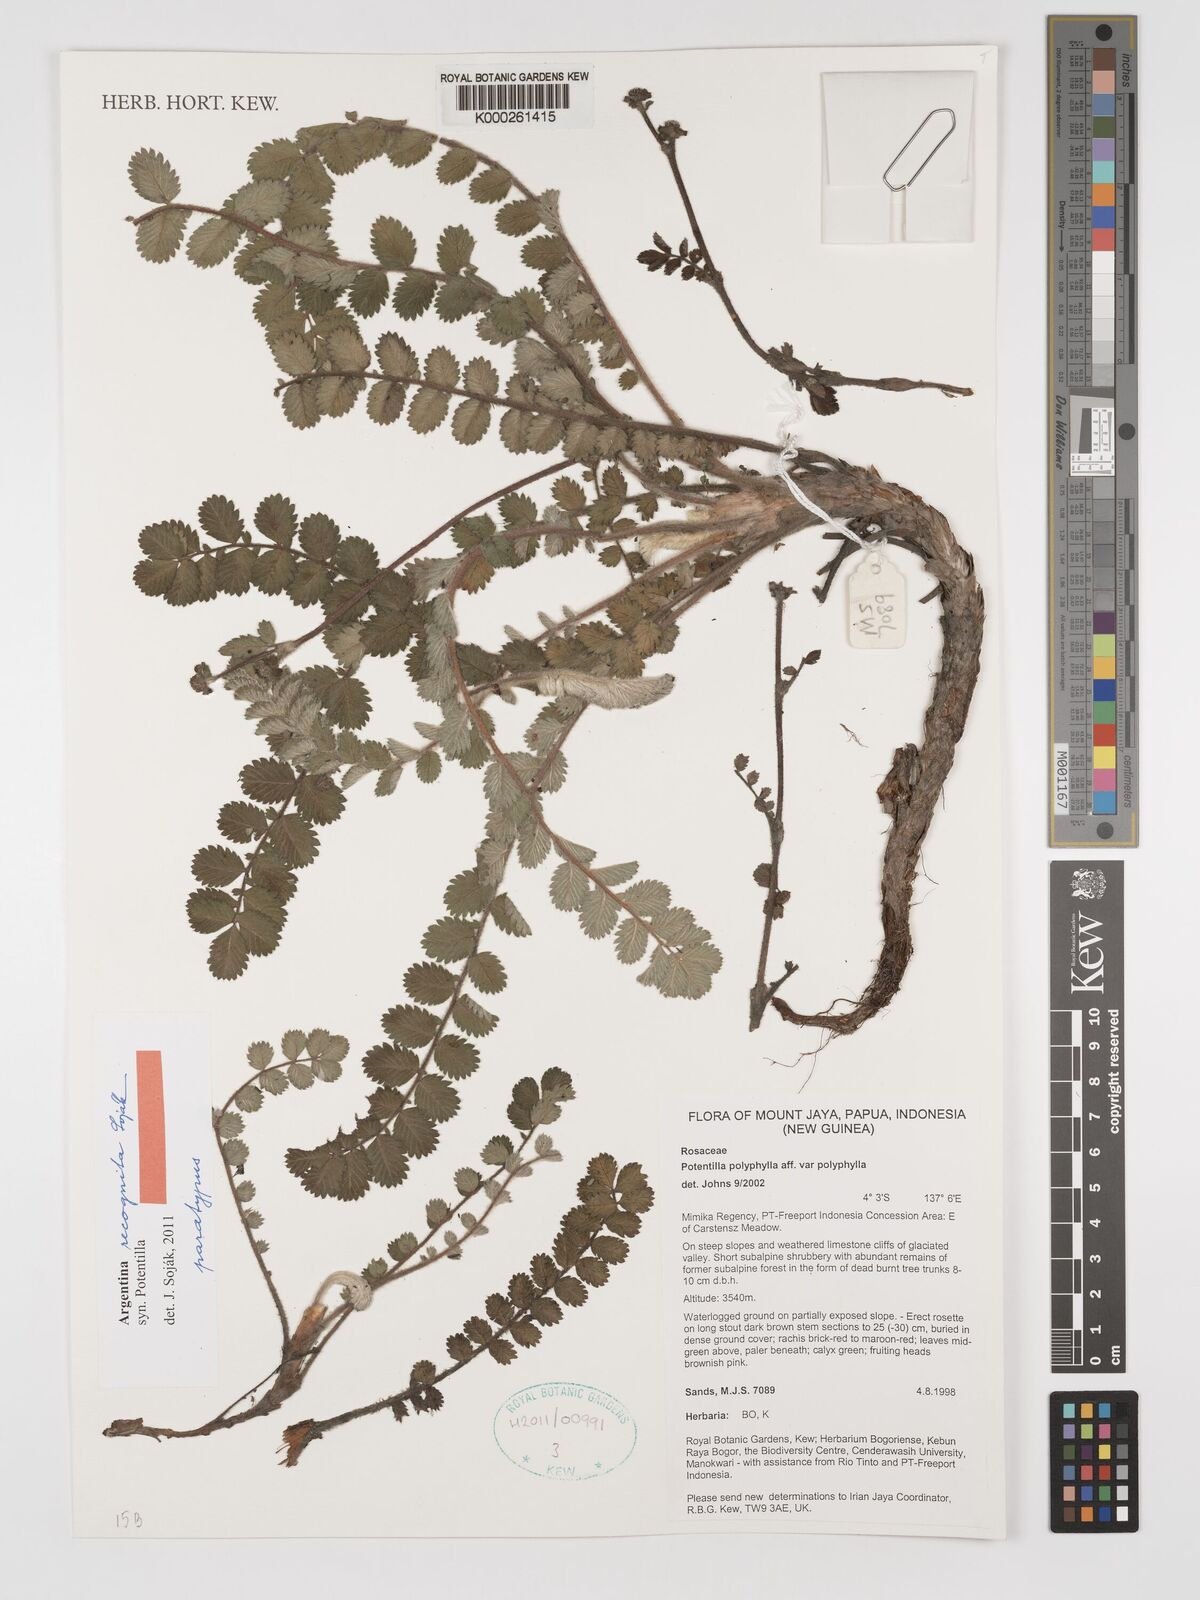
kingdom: Plantae
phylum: Tracheophyta
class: Magnoliopsida
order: Rosales
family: Rosaceae
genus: Potentilla
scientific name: Potentilla
